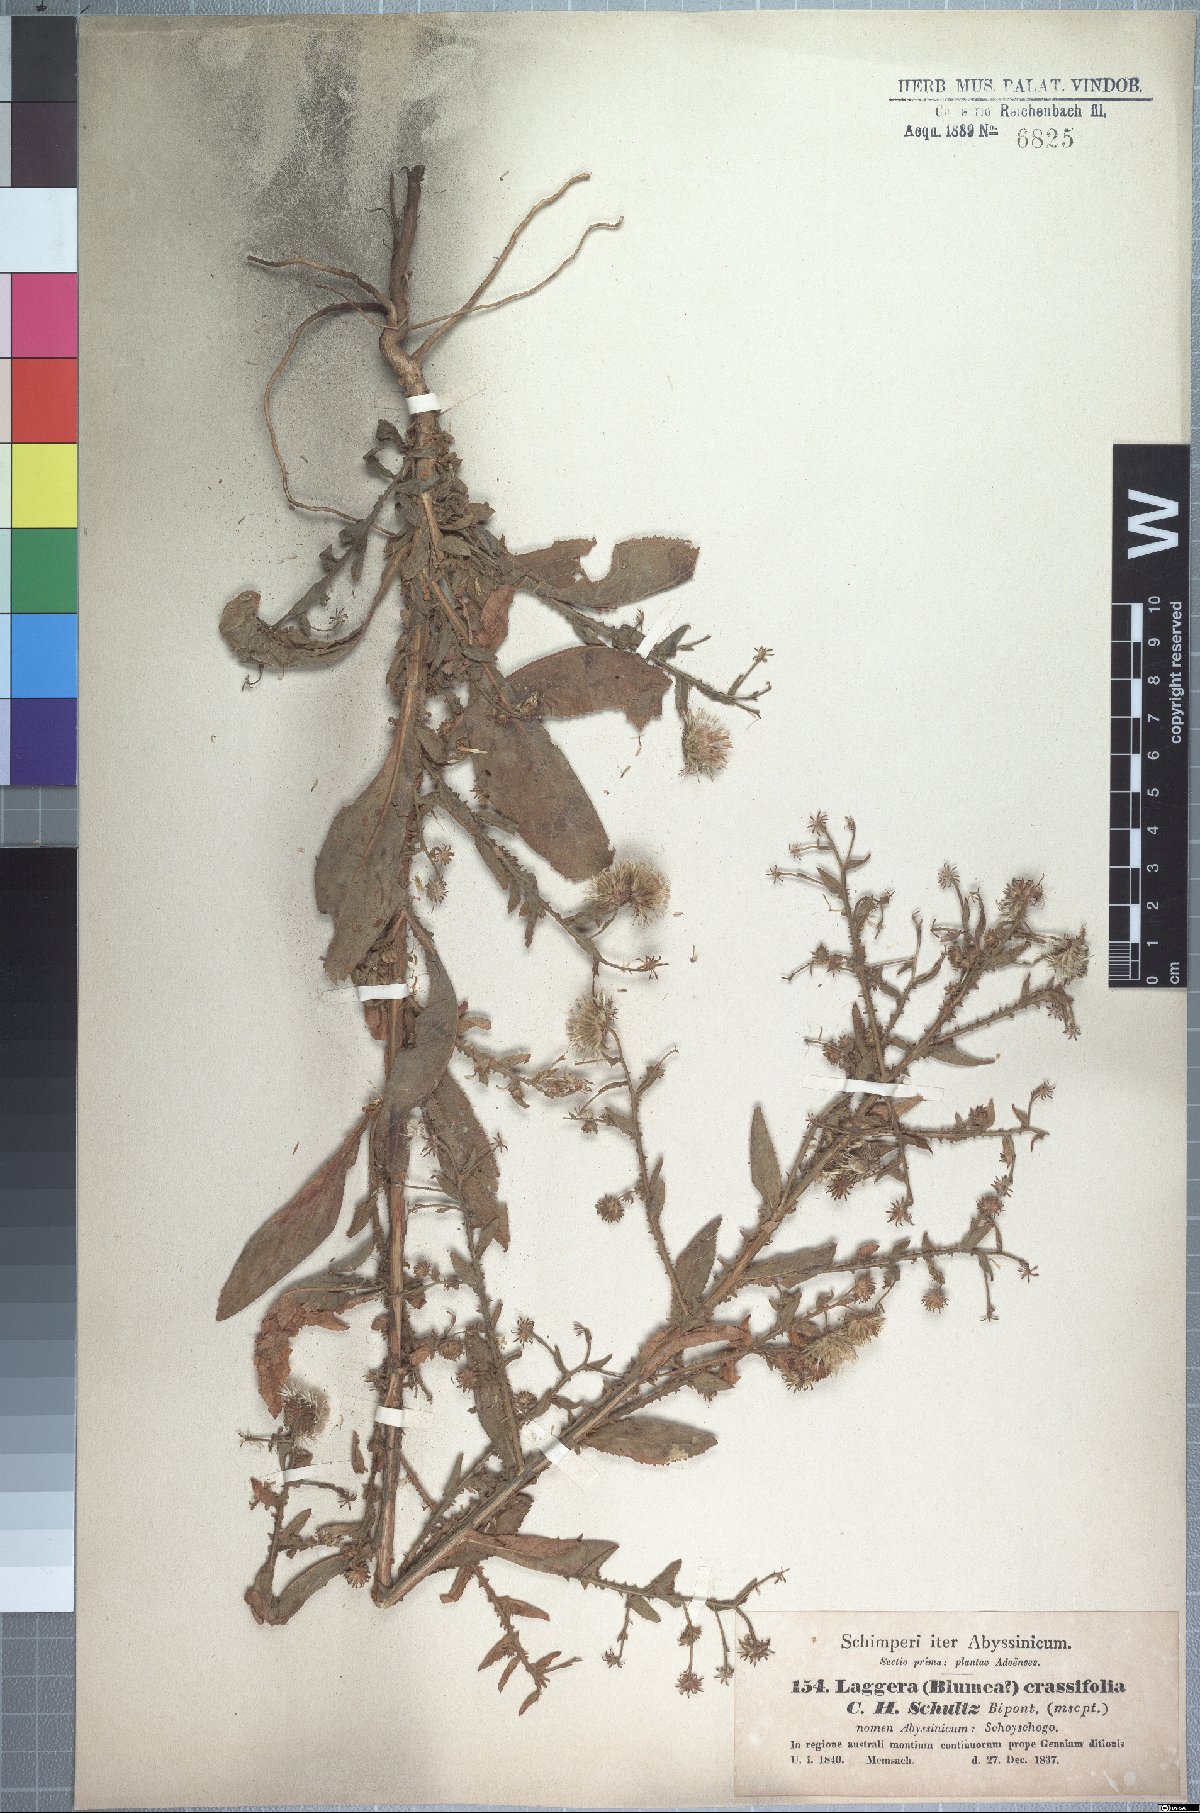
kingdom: Plantae
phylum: Tracheophyta
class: Magnoliopsida
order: Asterales
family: Asteraceae
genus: Laggera
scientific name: Laggera crassifolia
